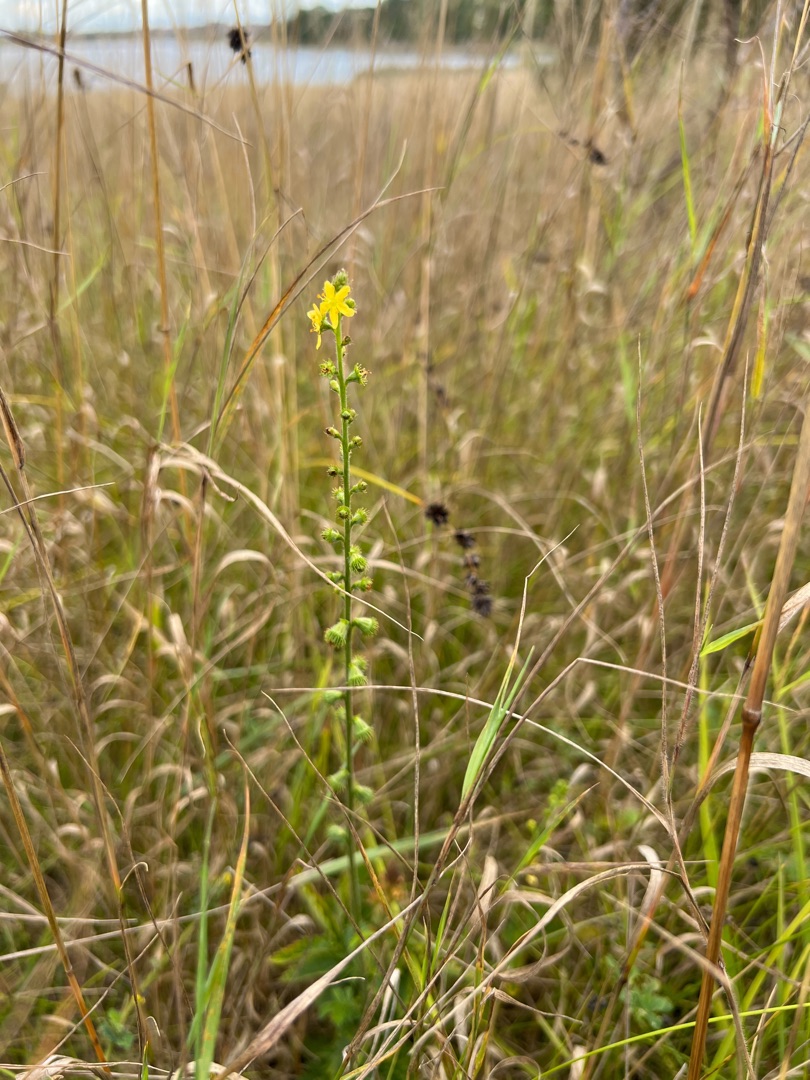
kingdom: Plantae
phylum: Tracheophyta
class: Magnoliopsida
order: Rosales
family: Rosaceae
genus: Agrimonia
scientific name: Agrimonia eupatoria
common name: Almindelig agermåne
